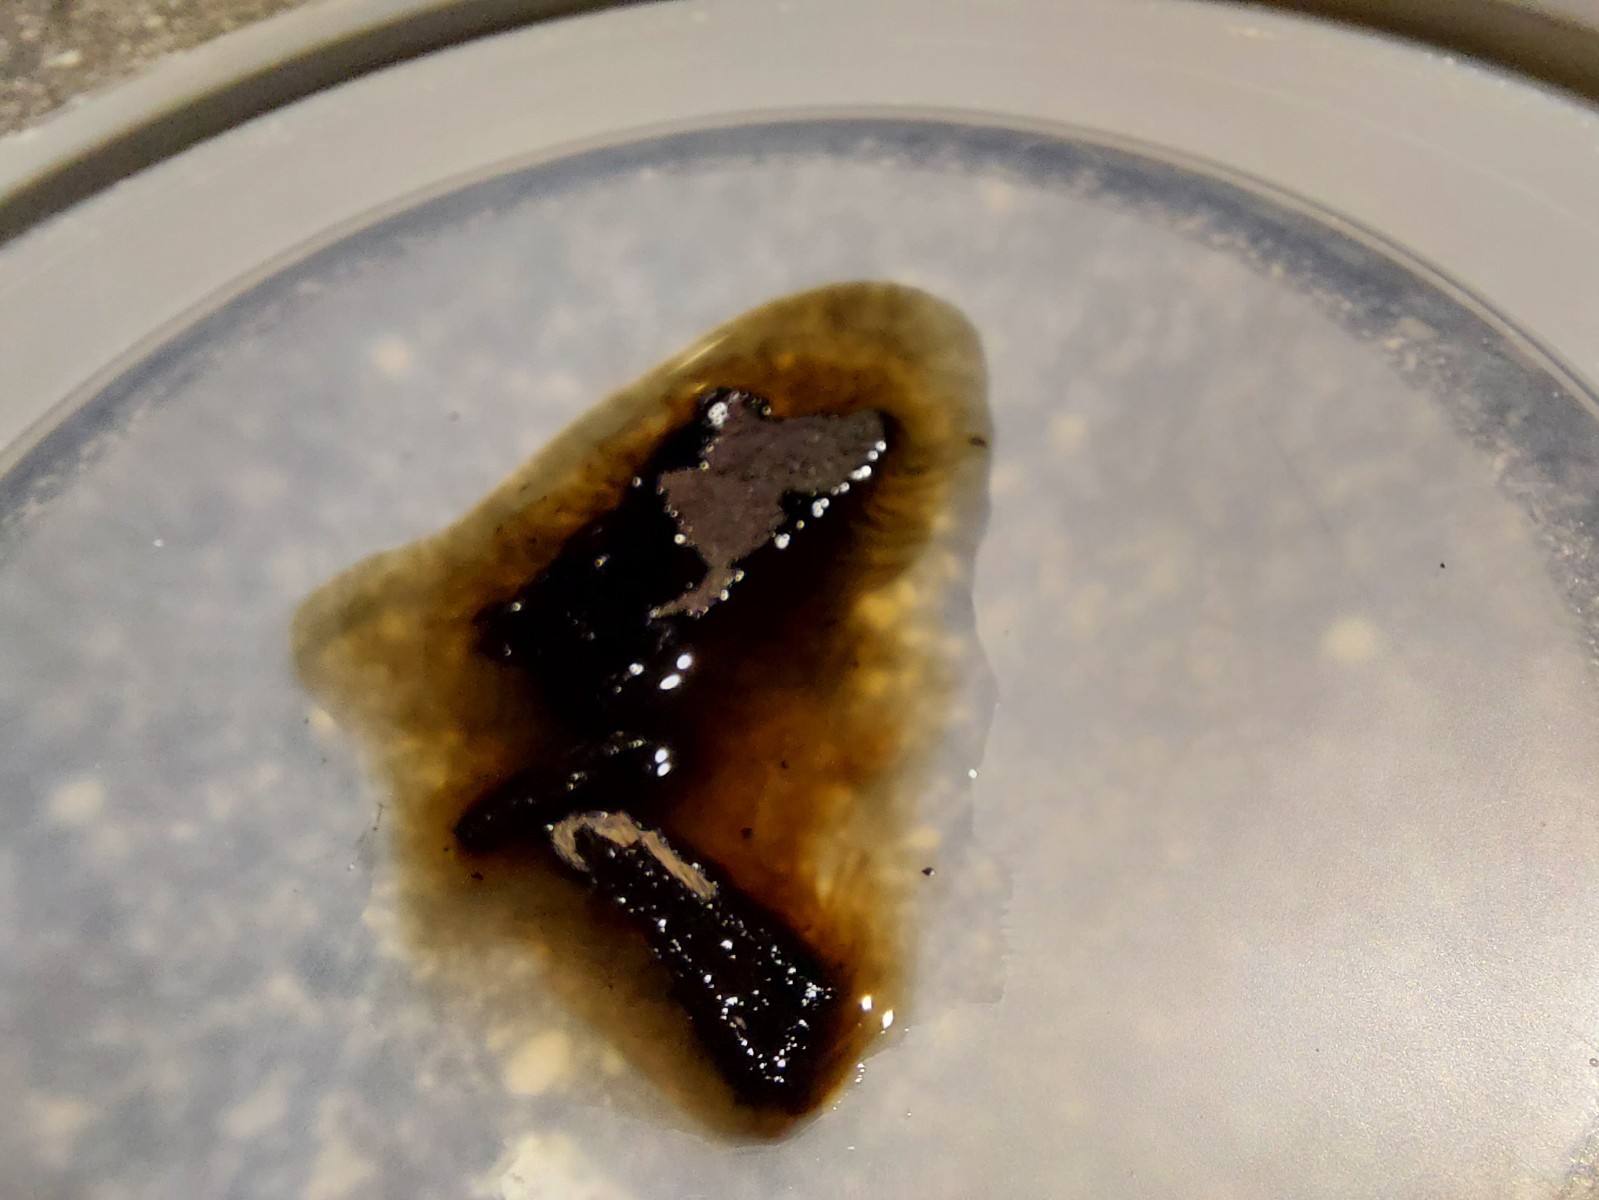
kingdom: Fungi
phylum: Ascomycota
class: Sordariomycetes
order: Xylariales
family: Hypoxylaceae
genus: Hypoxylon
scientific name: Hypoxylon petriniae
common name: nedsænket kulbær
